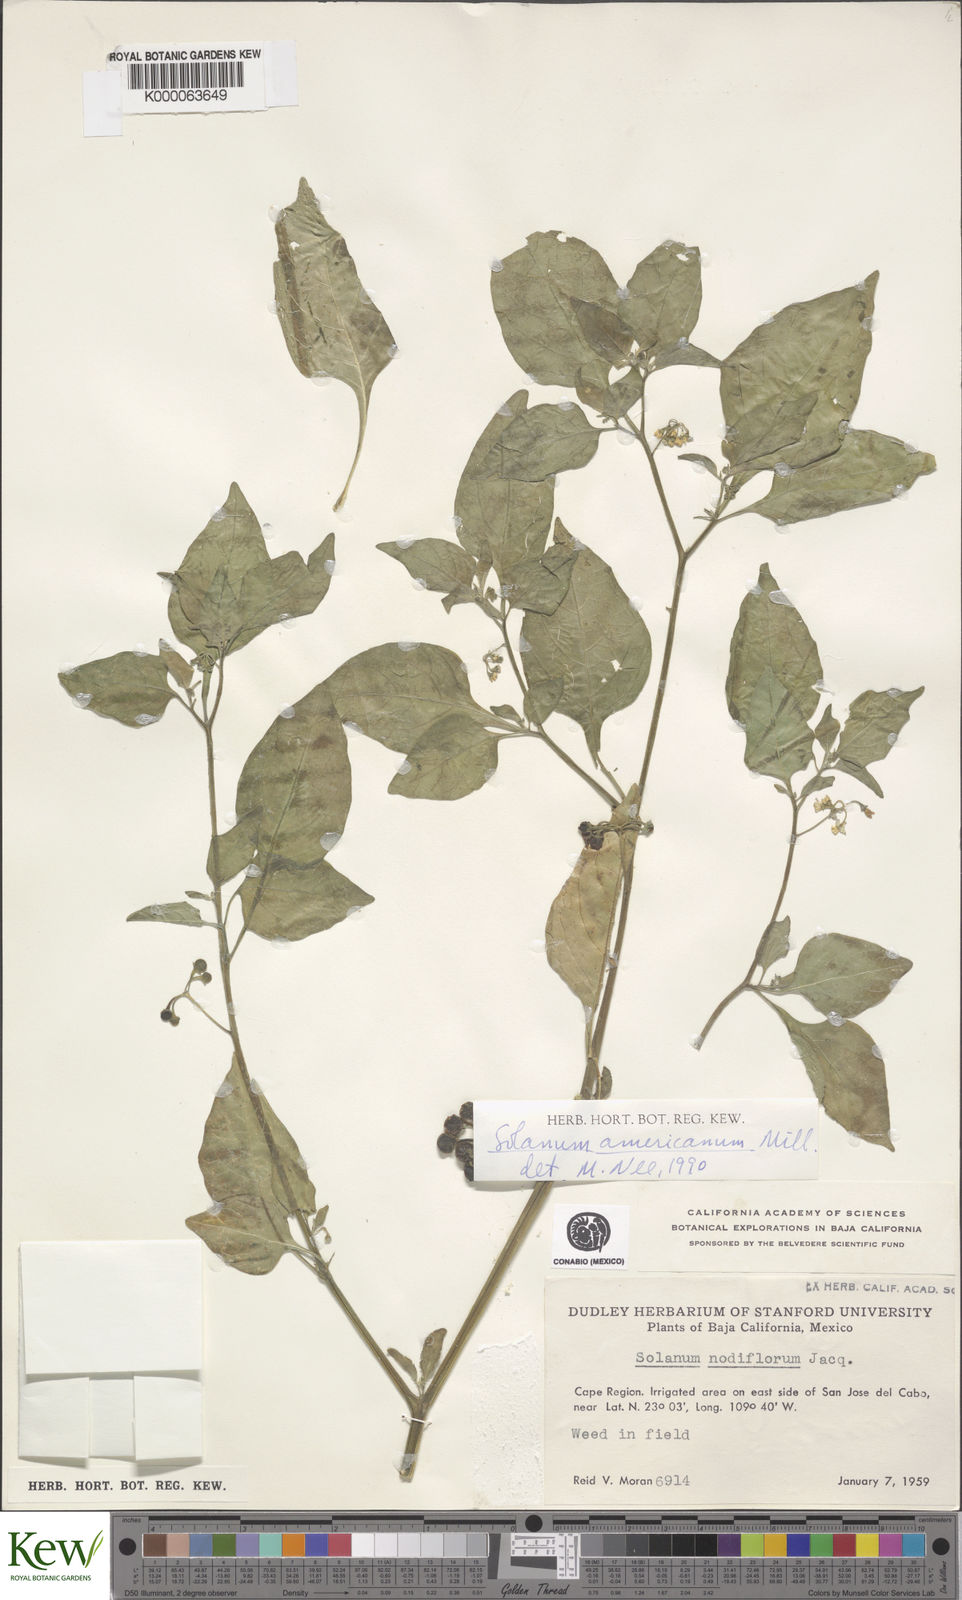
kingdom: Plantae
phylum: Tracheophyta
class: Magnoliopsida
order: Solanales
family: Solanaceae
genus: Solanum
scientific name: Solanum americanum
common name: American black nightshade
